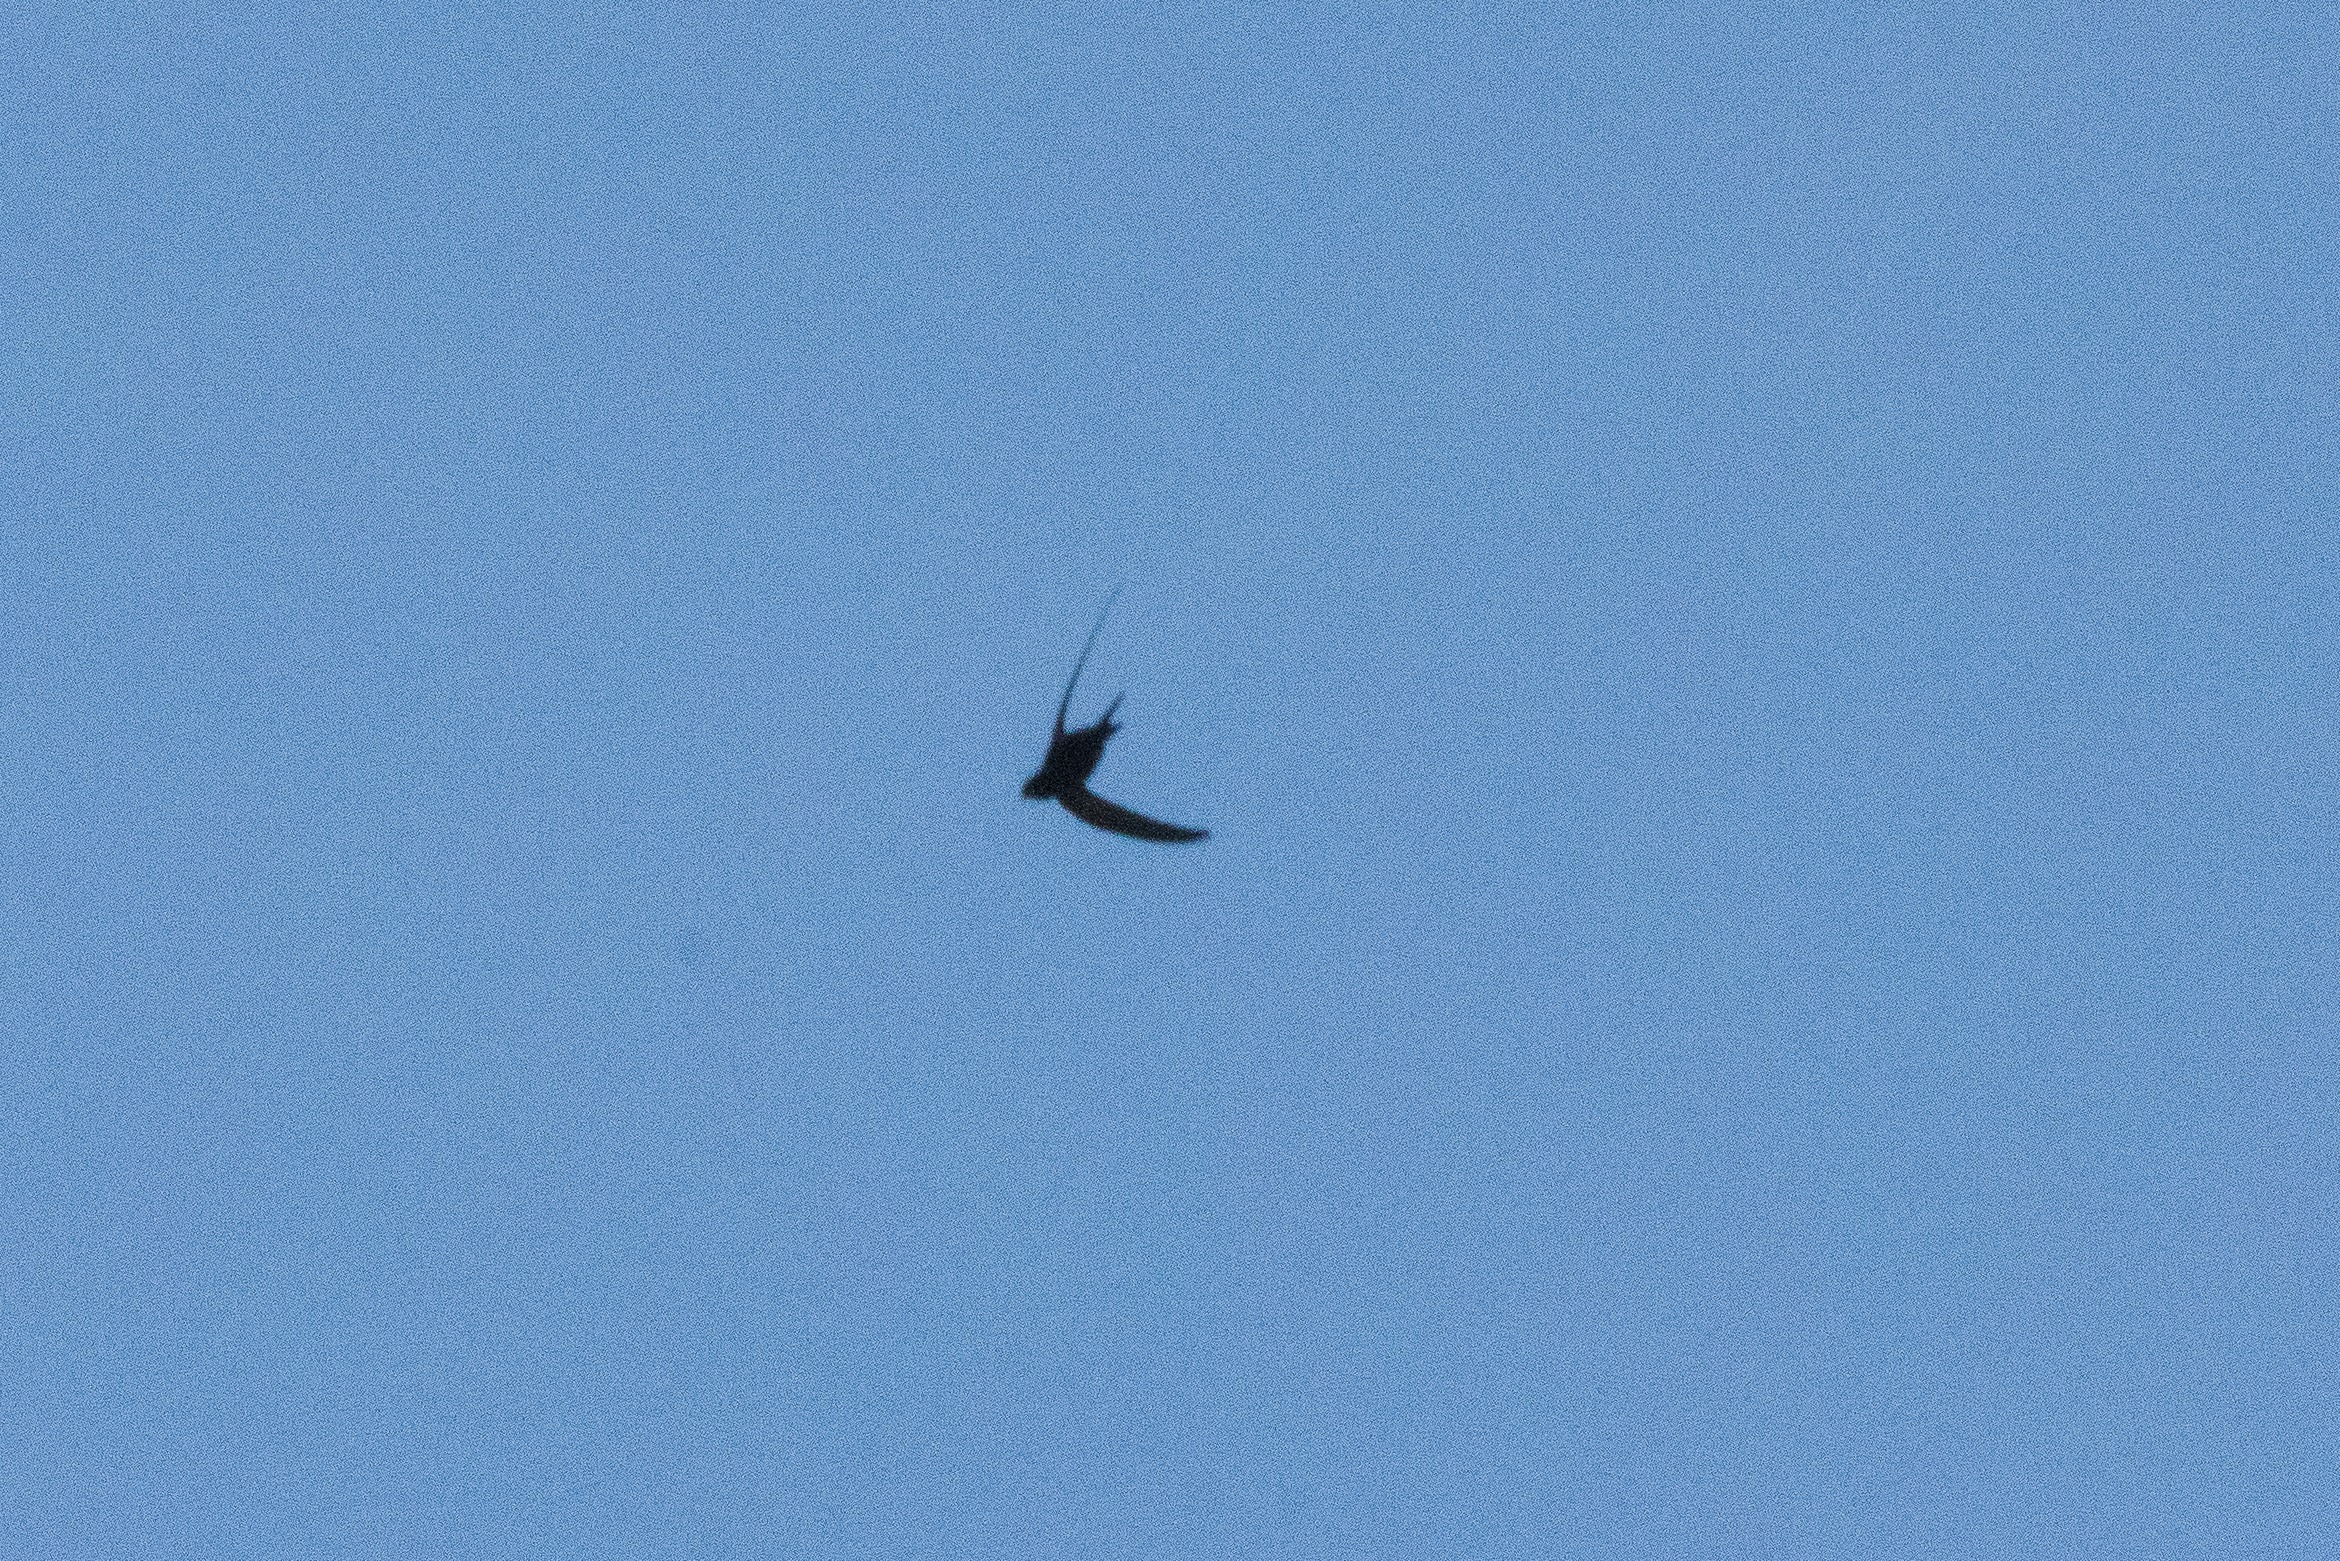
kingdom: Animalia
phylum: Chordata
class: Aves
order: Apodiformes
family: Apodidae
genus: Apus
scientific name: Apus apus
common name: Mursejler
